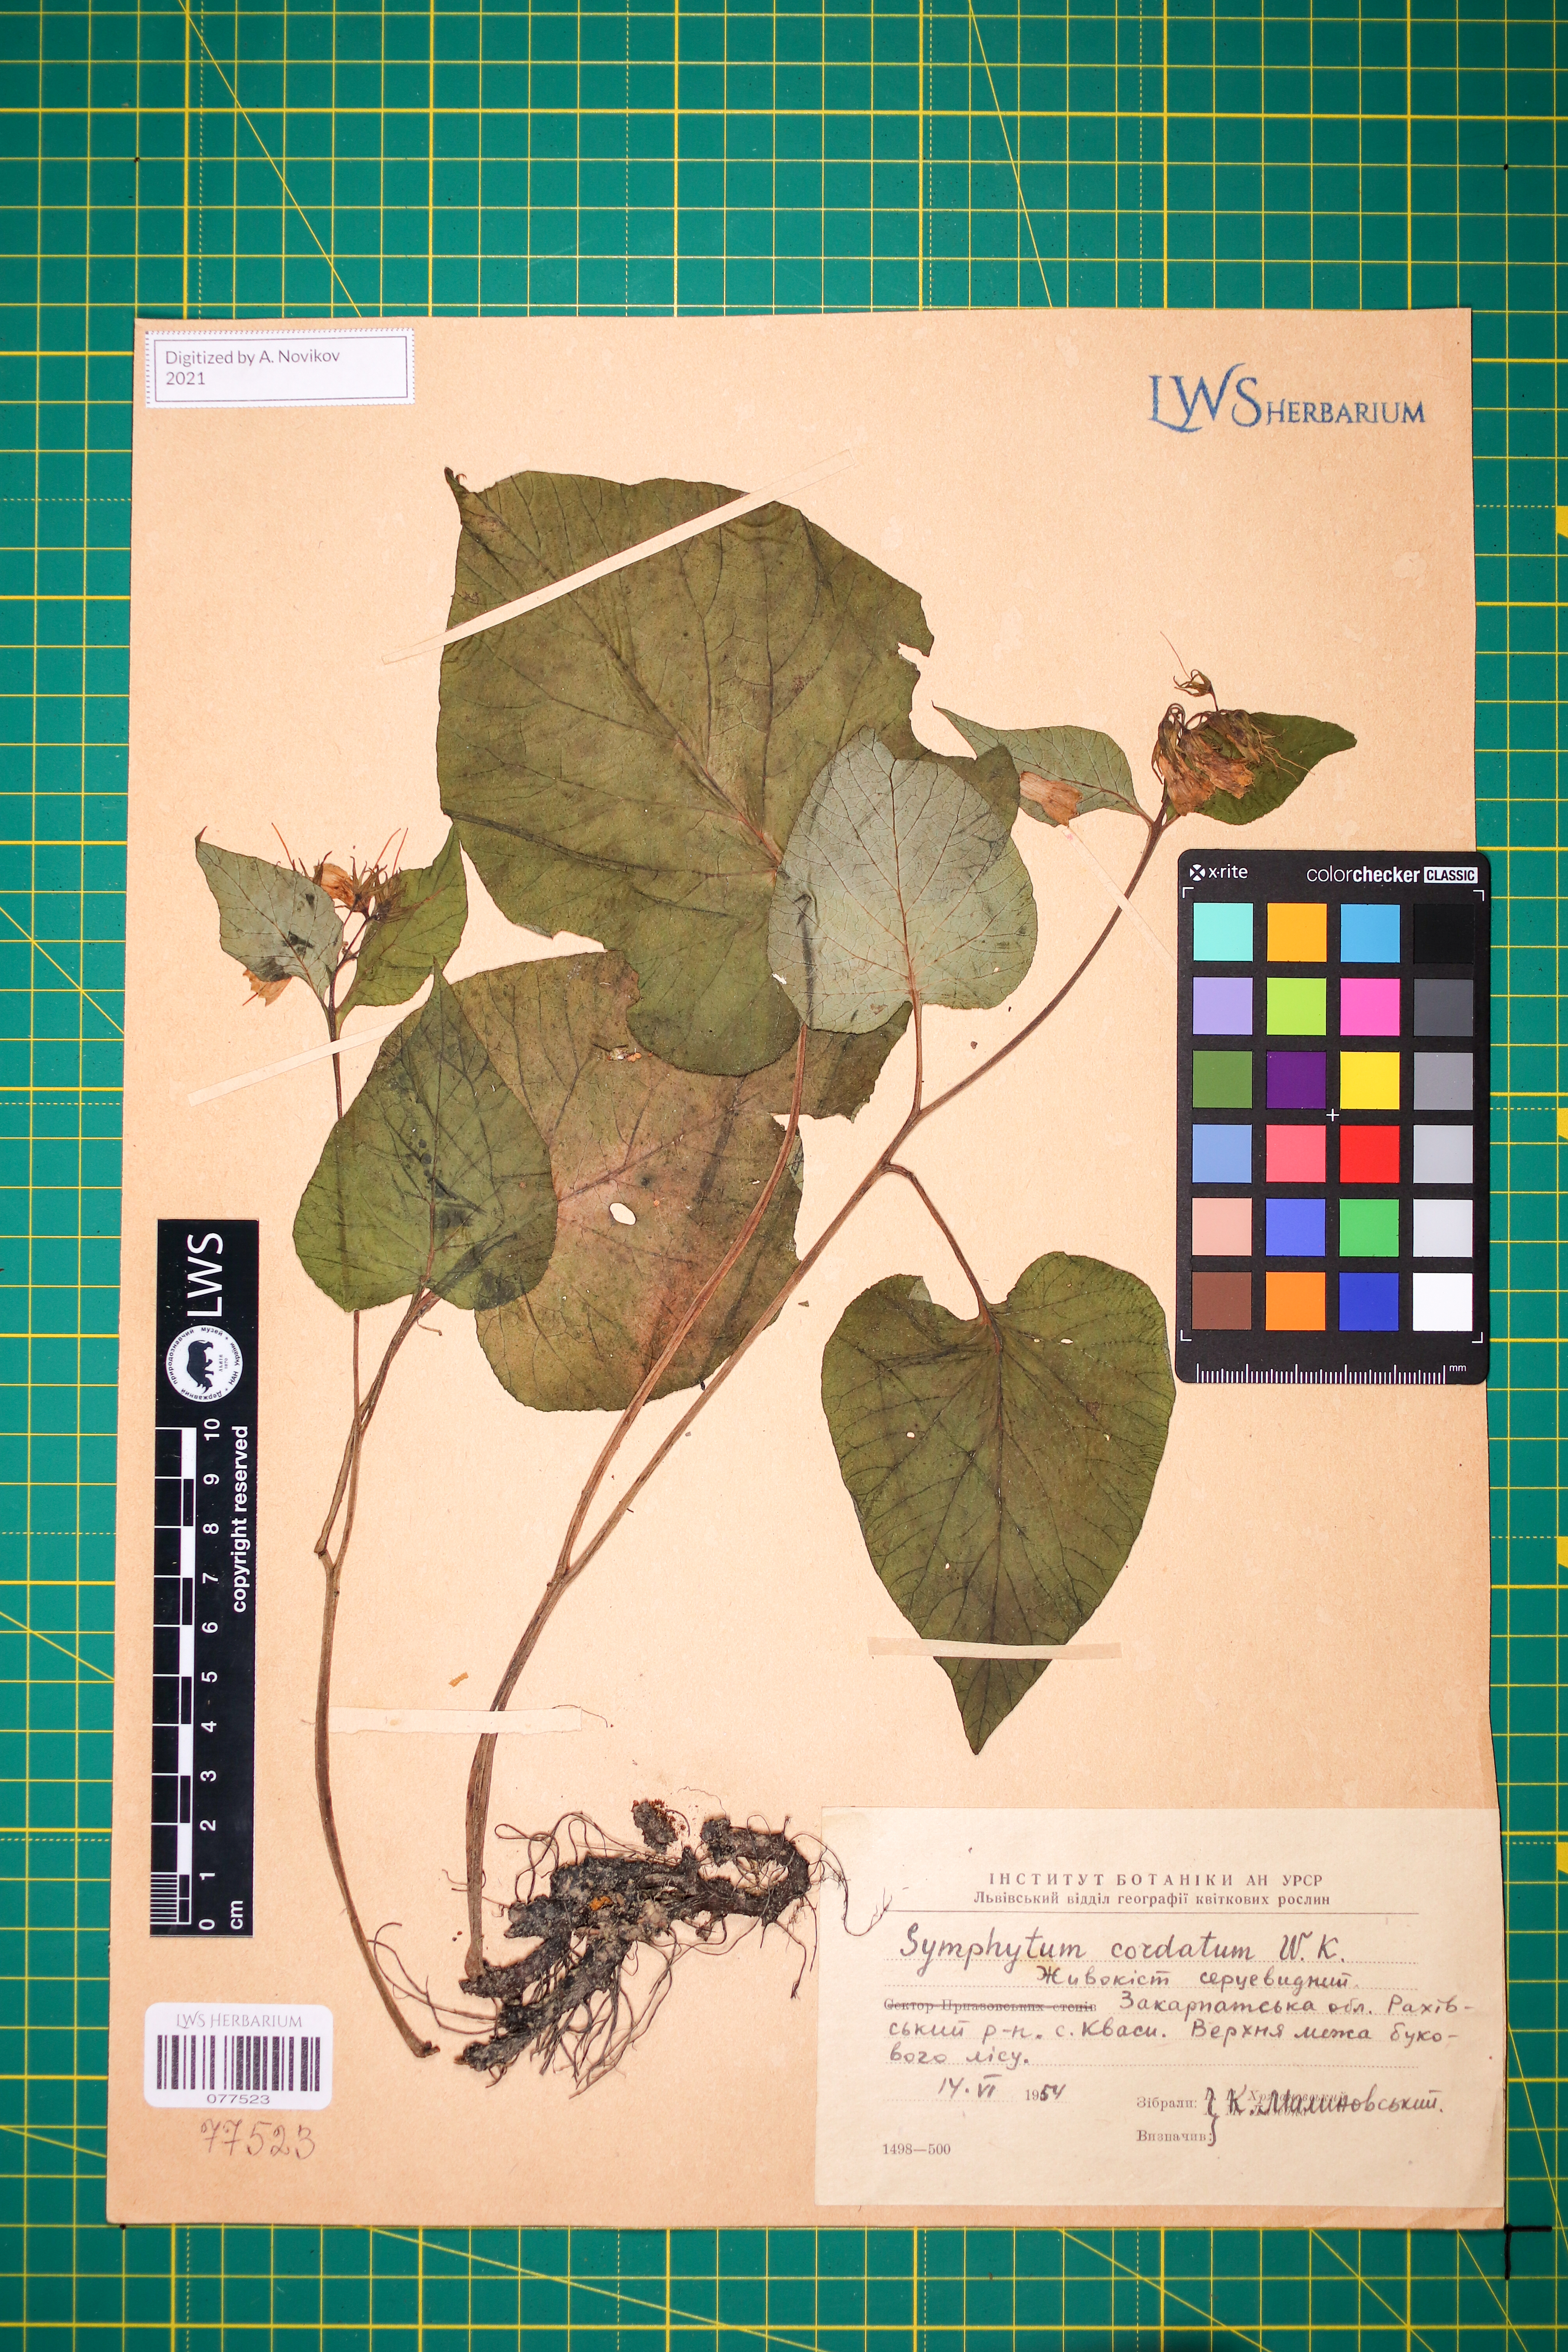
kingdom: Plantae
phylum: Tracheophyta
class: Magnoliopsida
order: Boraginales
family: Boraginaceae
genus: Symphytum
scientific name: Symphytum cordatum
